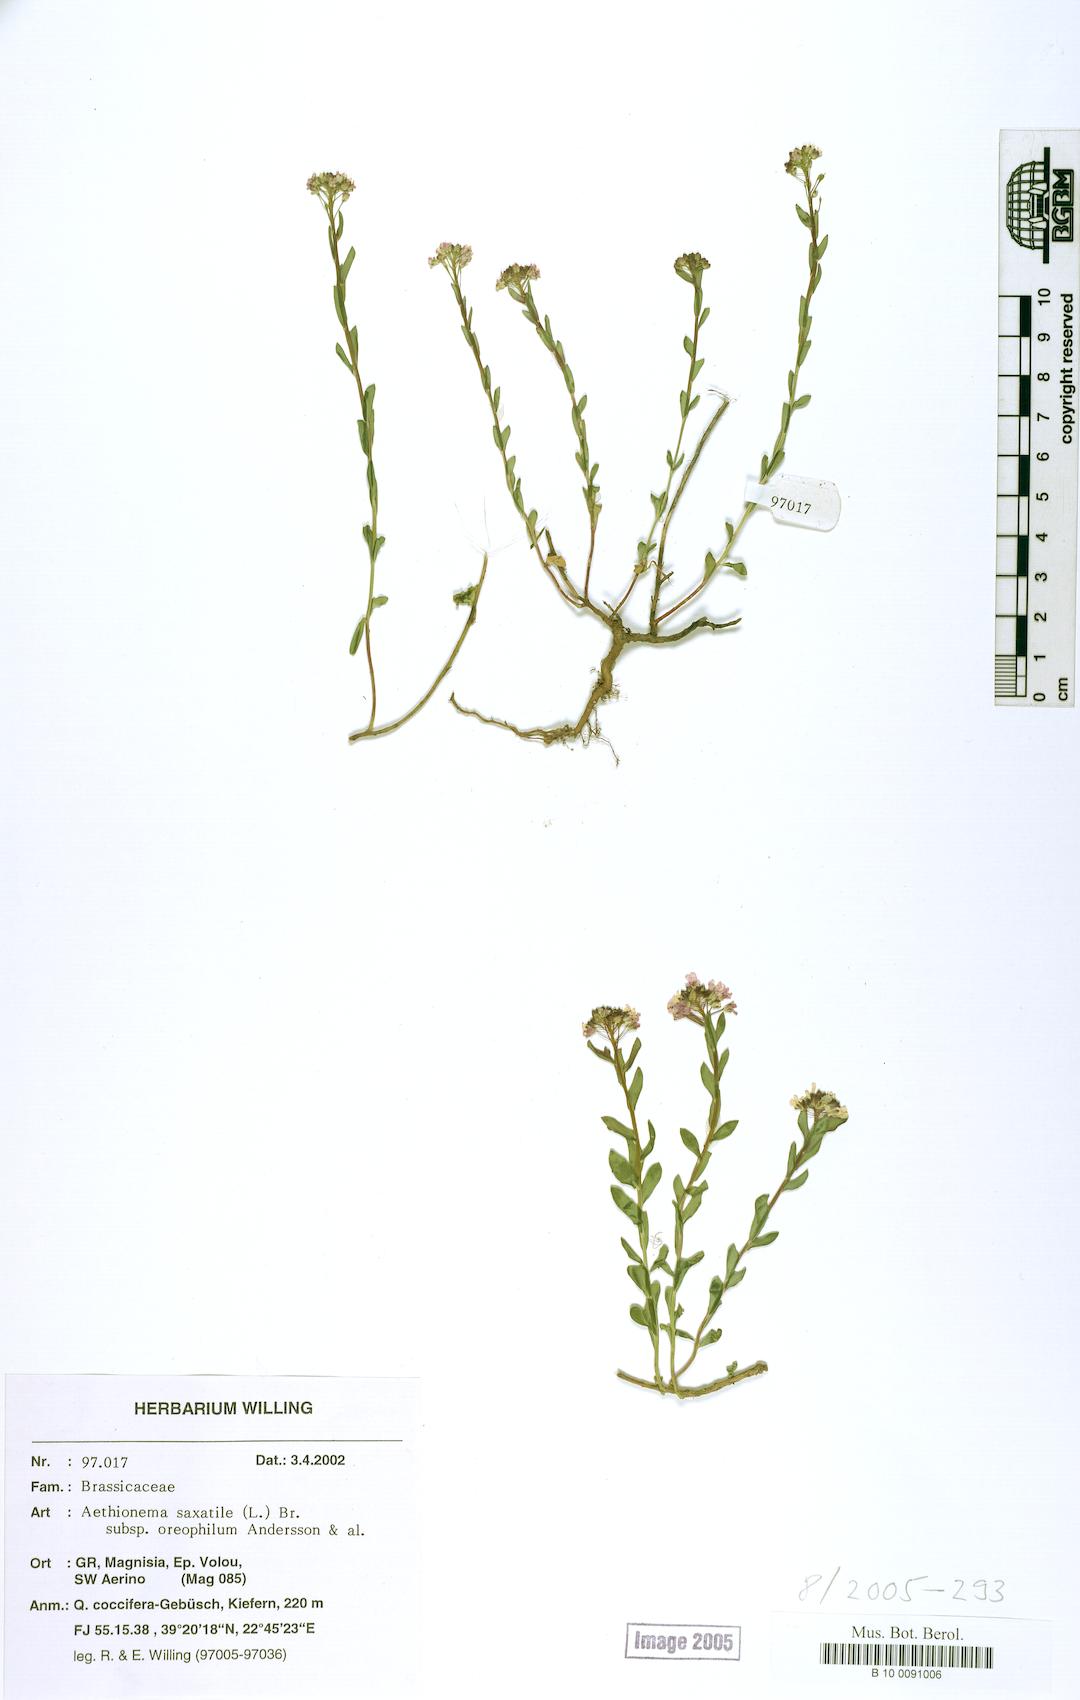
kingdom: Plantae
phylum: Tracheophyta
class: Magnoliopsida
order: Brassicales
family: Brassicaceae
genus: Aethionema
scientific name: Aethionema saxatile
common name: Burnt candytuft
